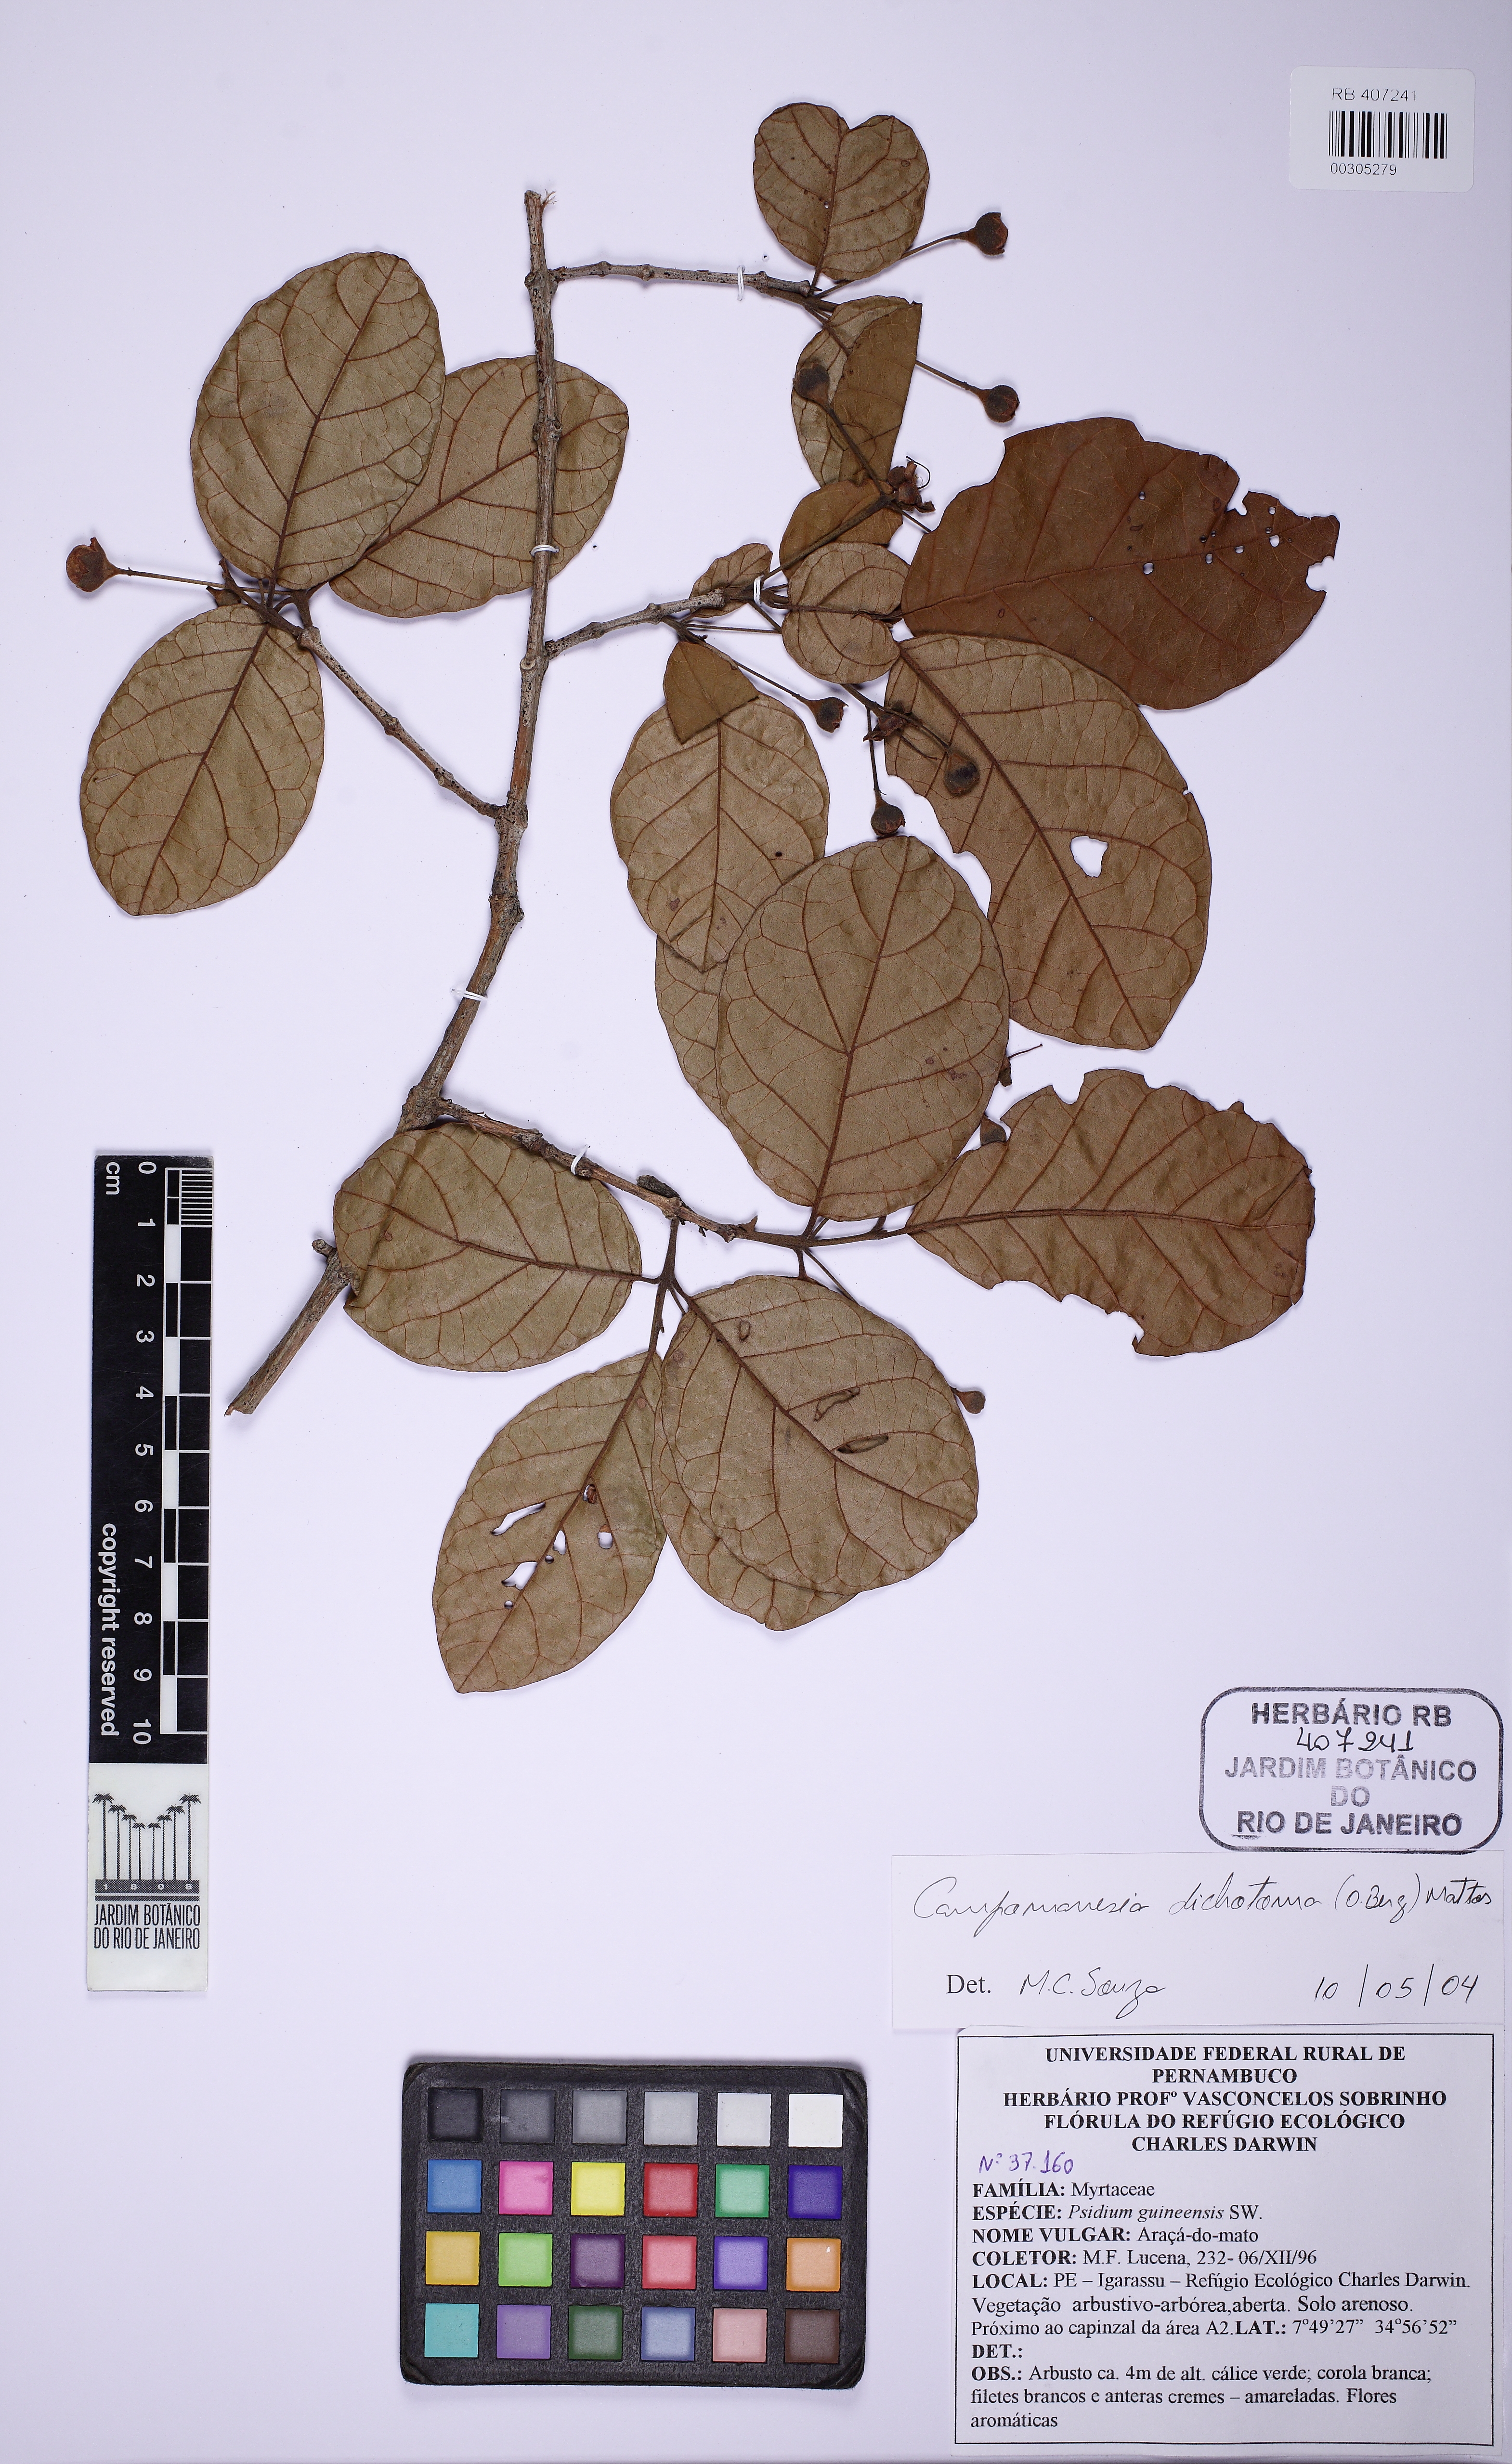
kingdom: Plantae
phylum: Tracheophyta
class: Magnoliopsida
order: Myrtales
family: Myrtaceae
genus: Campomanesia
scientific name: Campomanesia dichotoma
